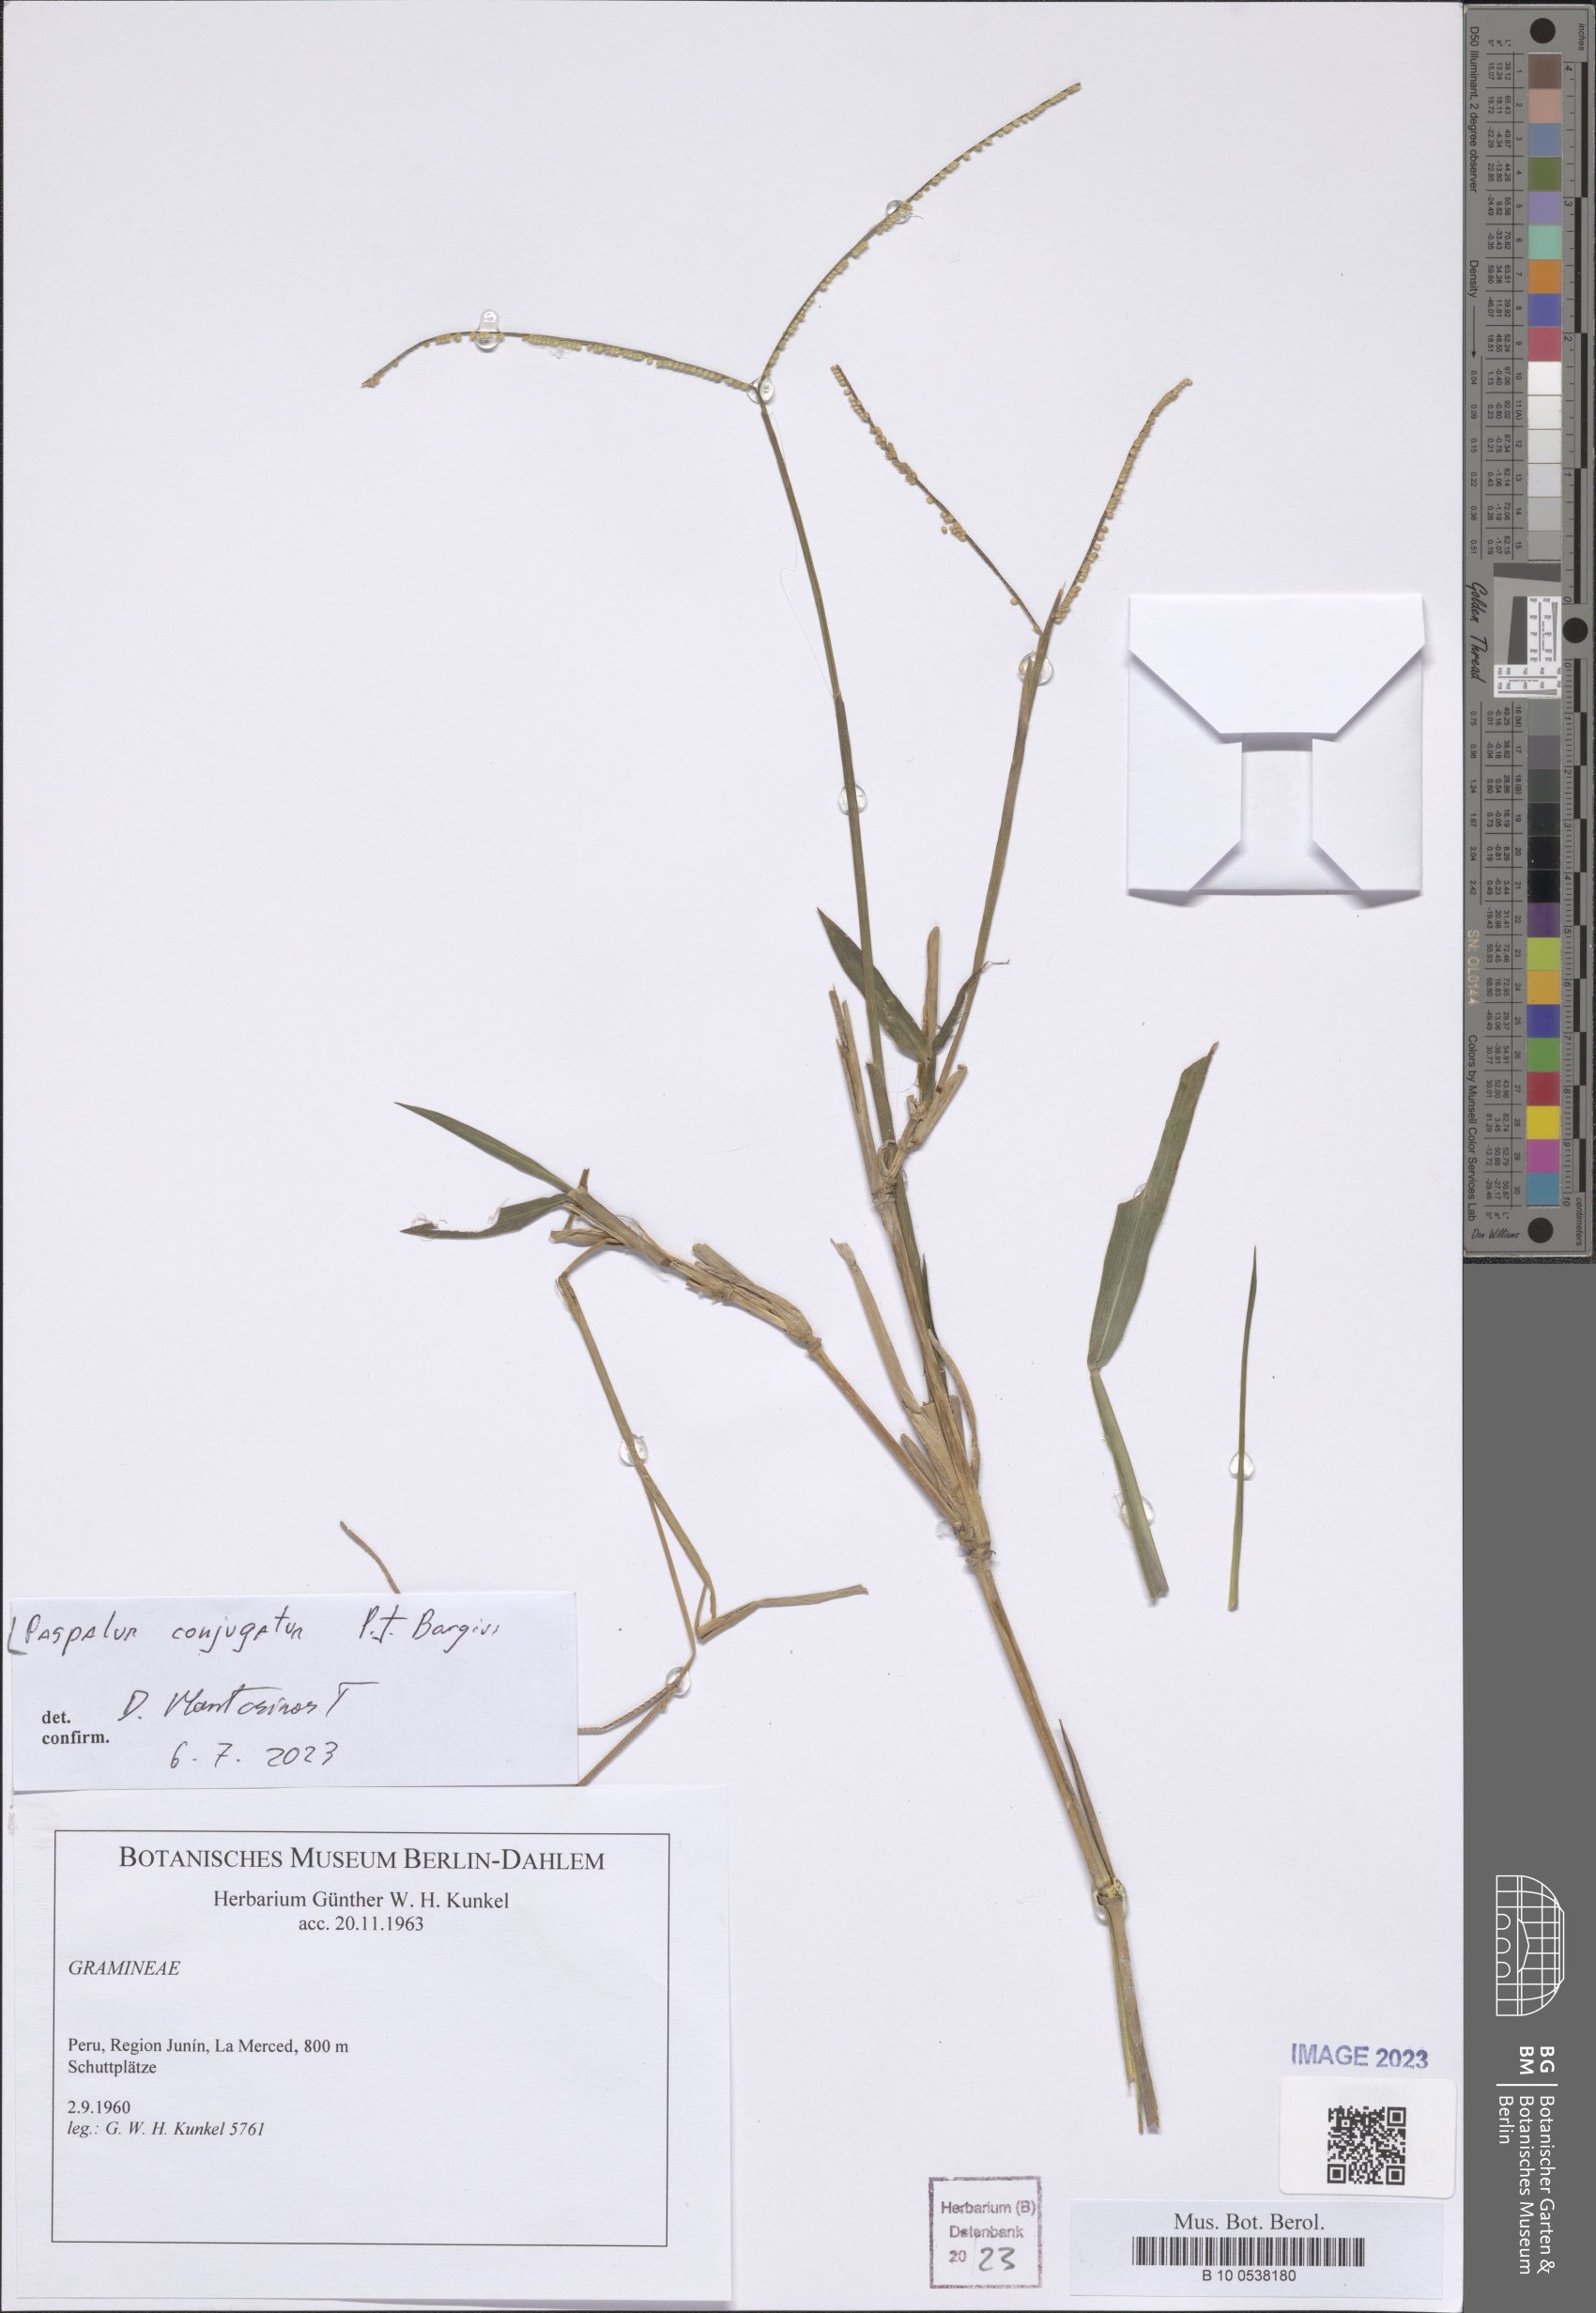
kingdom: Plantae
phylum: Tracheophyta
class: Liliopsida
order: Poales
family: Poaceae
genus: Paspalum
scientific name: Paspalum conjugatum
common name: Hilograss
